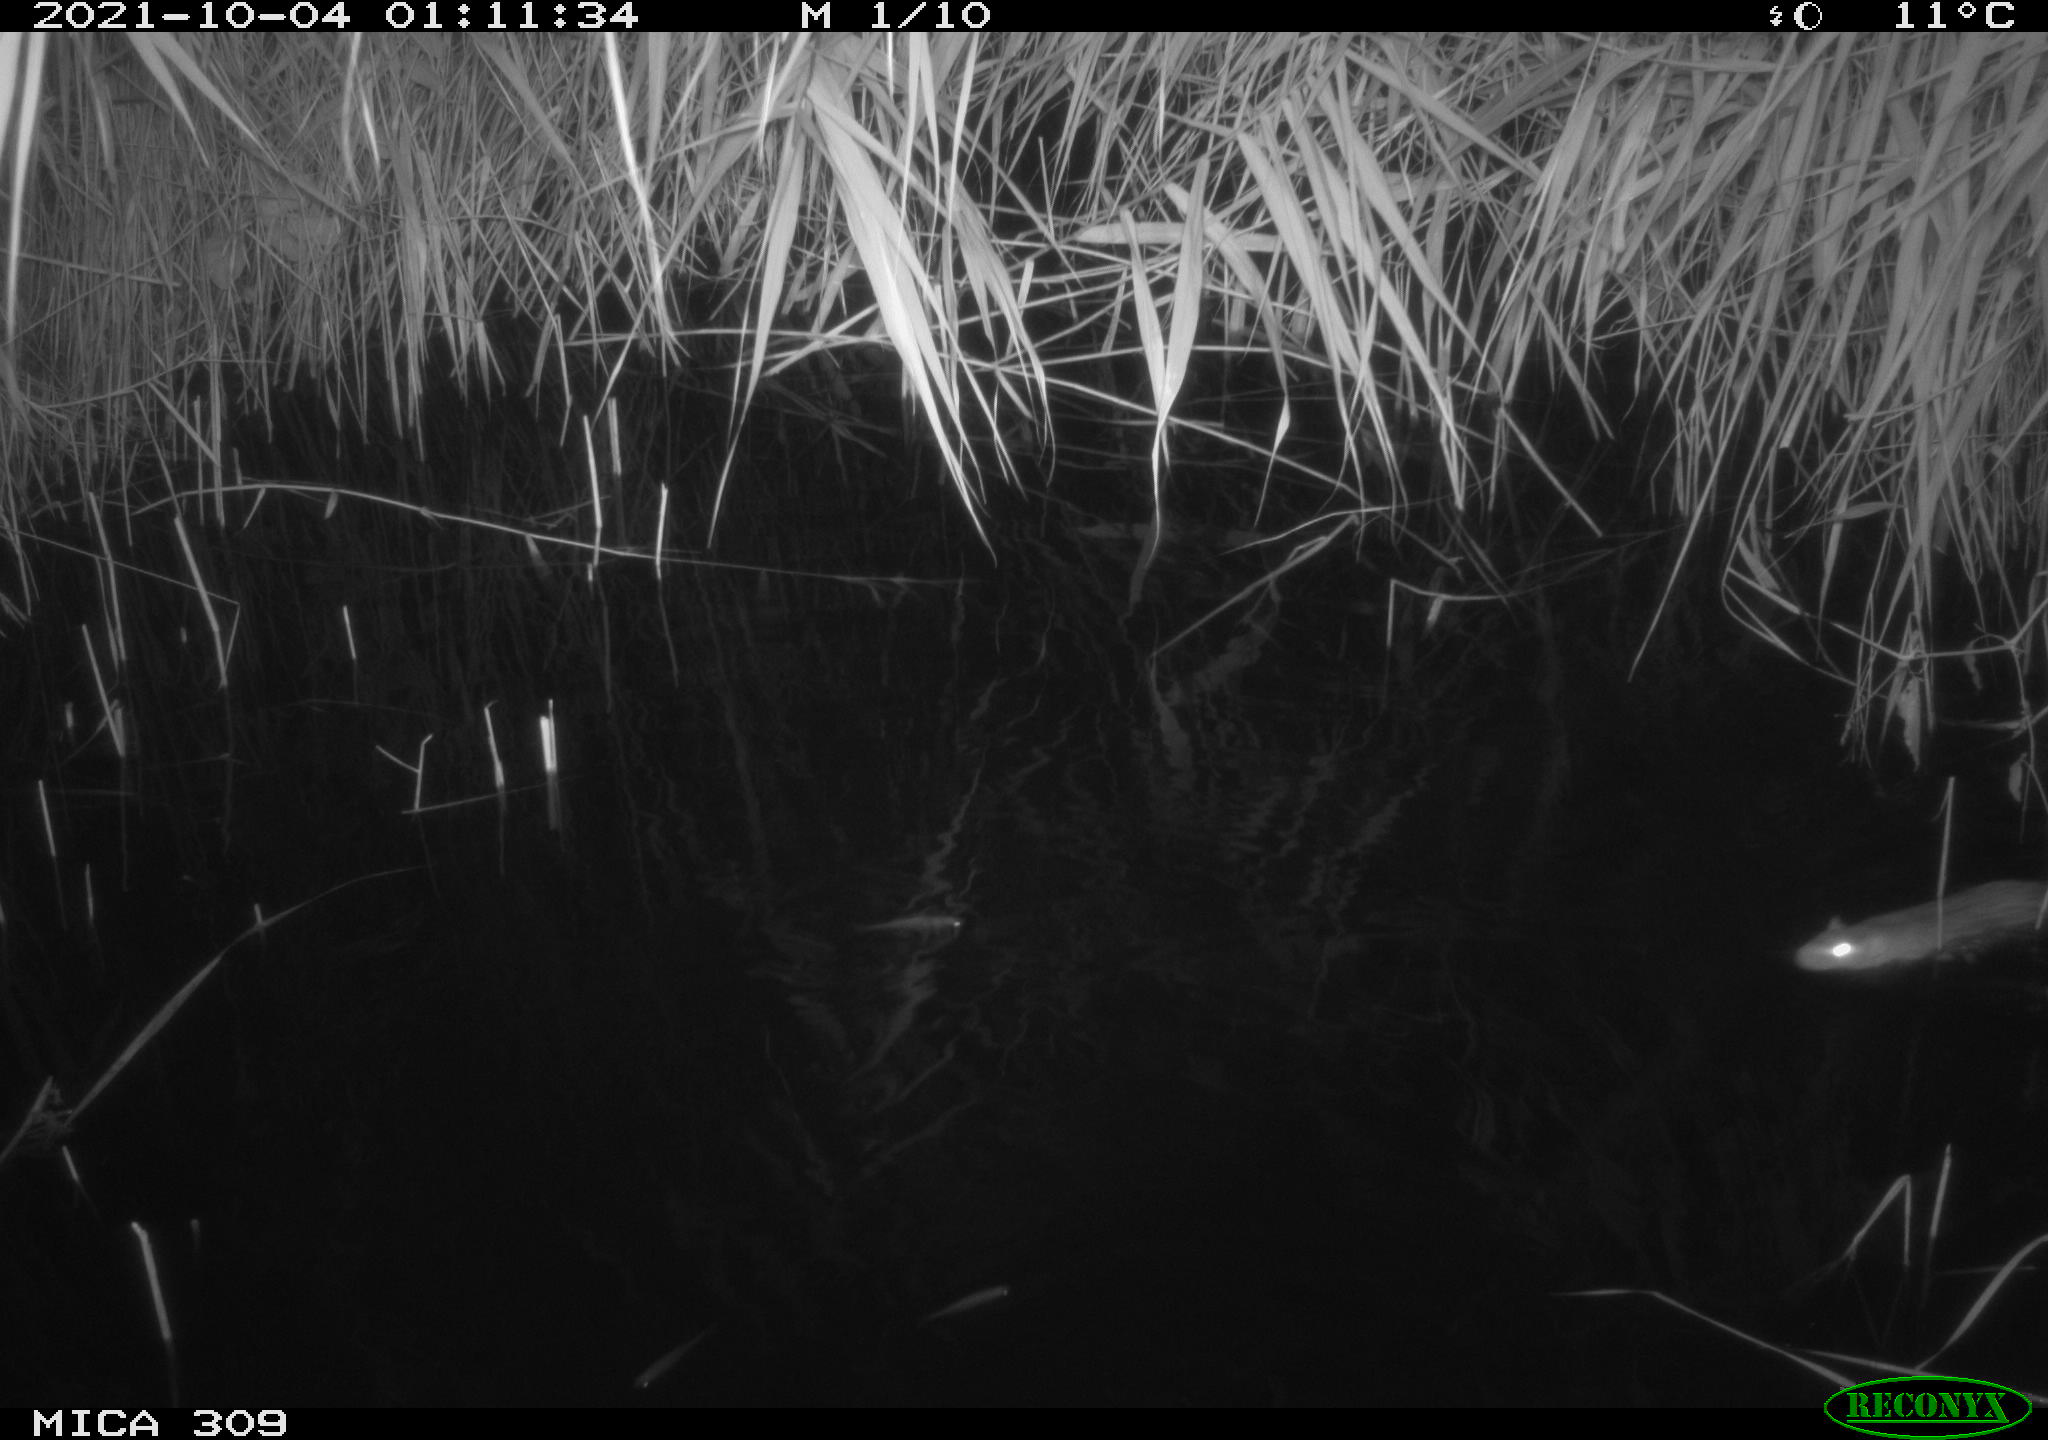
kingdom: Animalia
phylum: Chordata
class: Mammalia
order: Rodentia
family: Muridae
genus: Rattus
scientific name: Rattus norvegicus
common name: Brown rat
